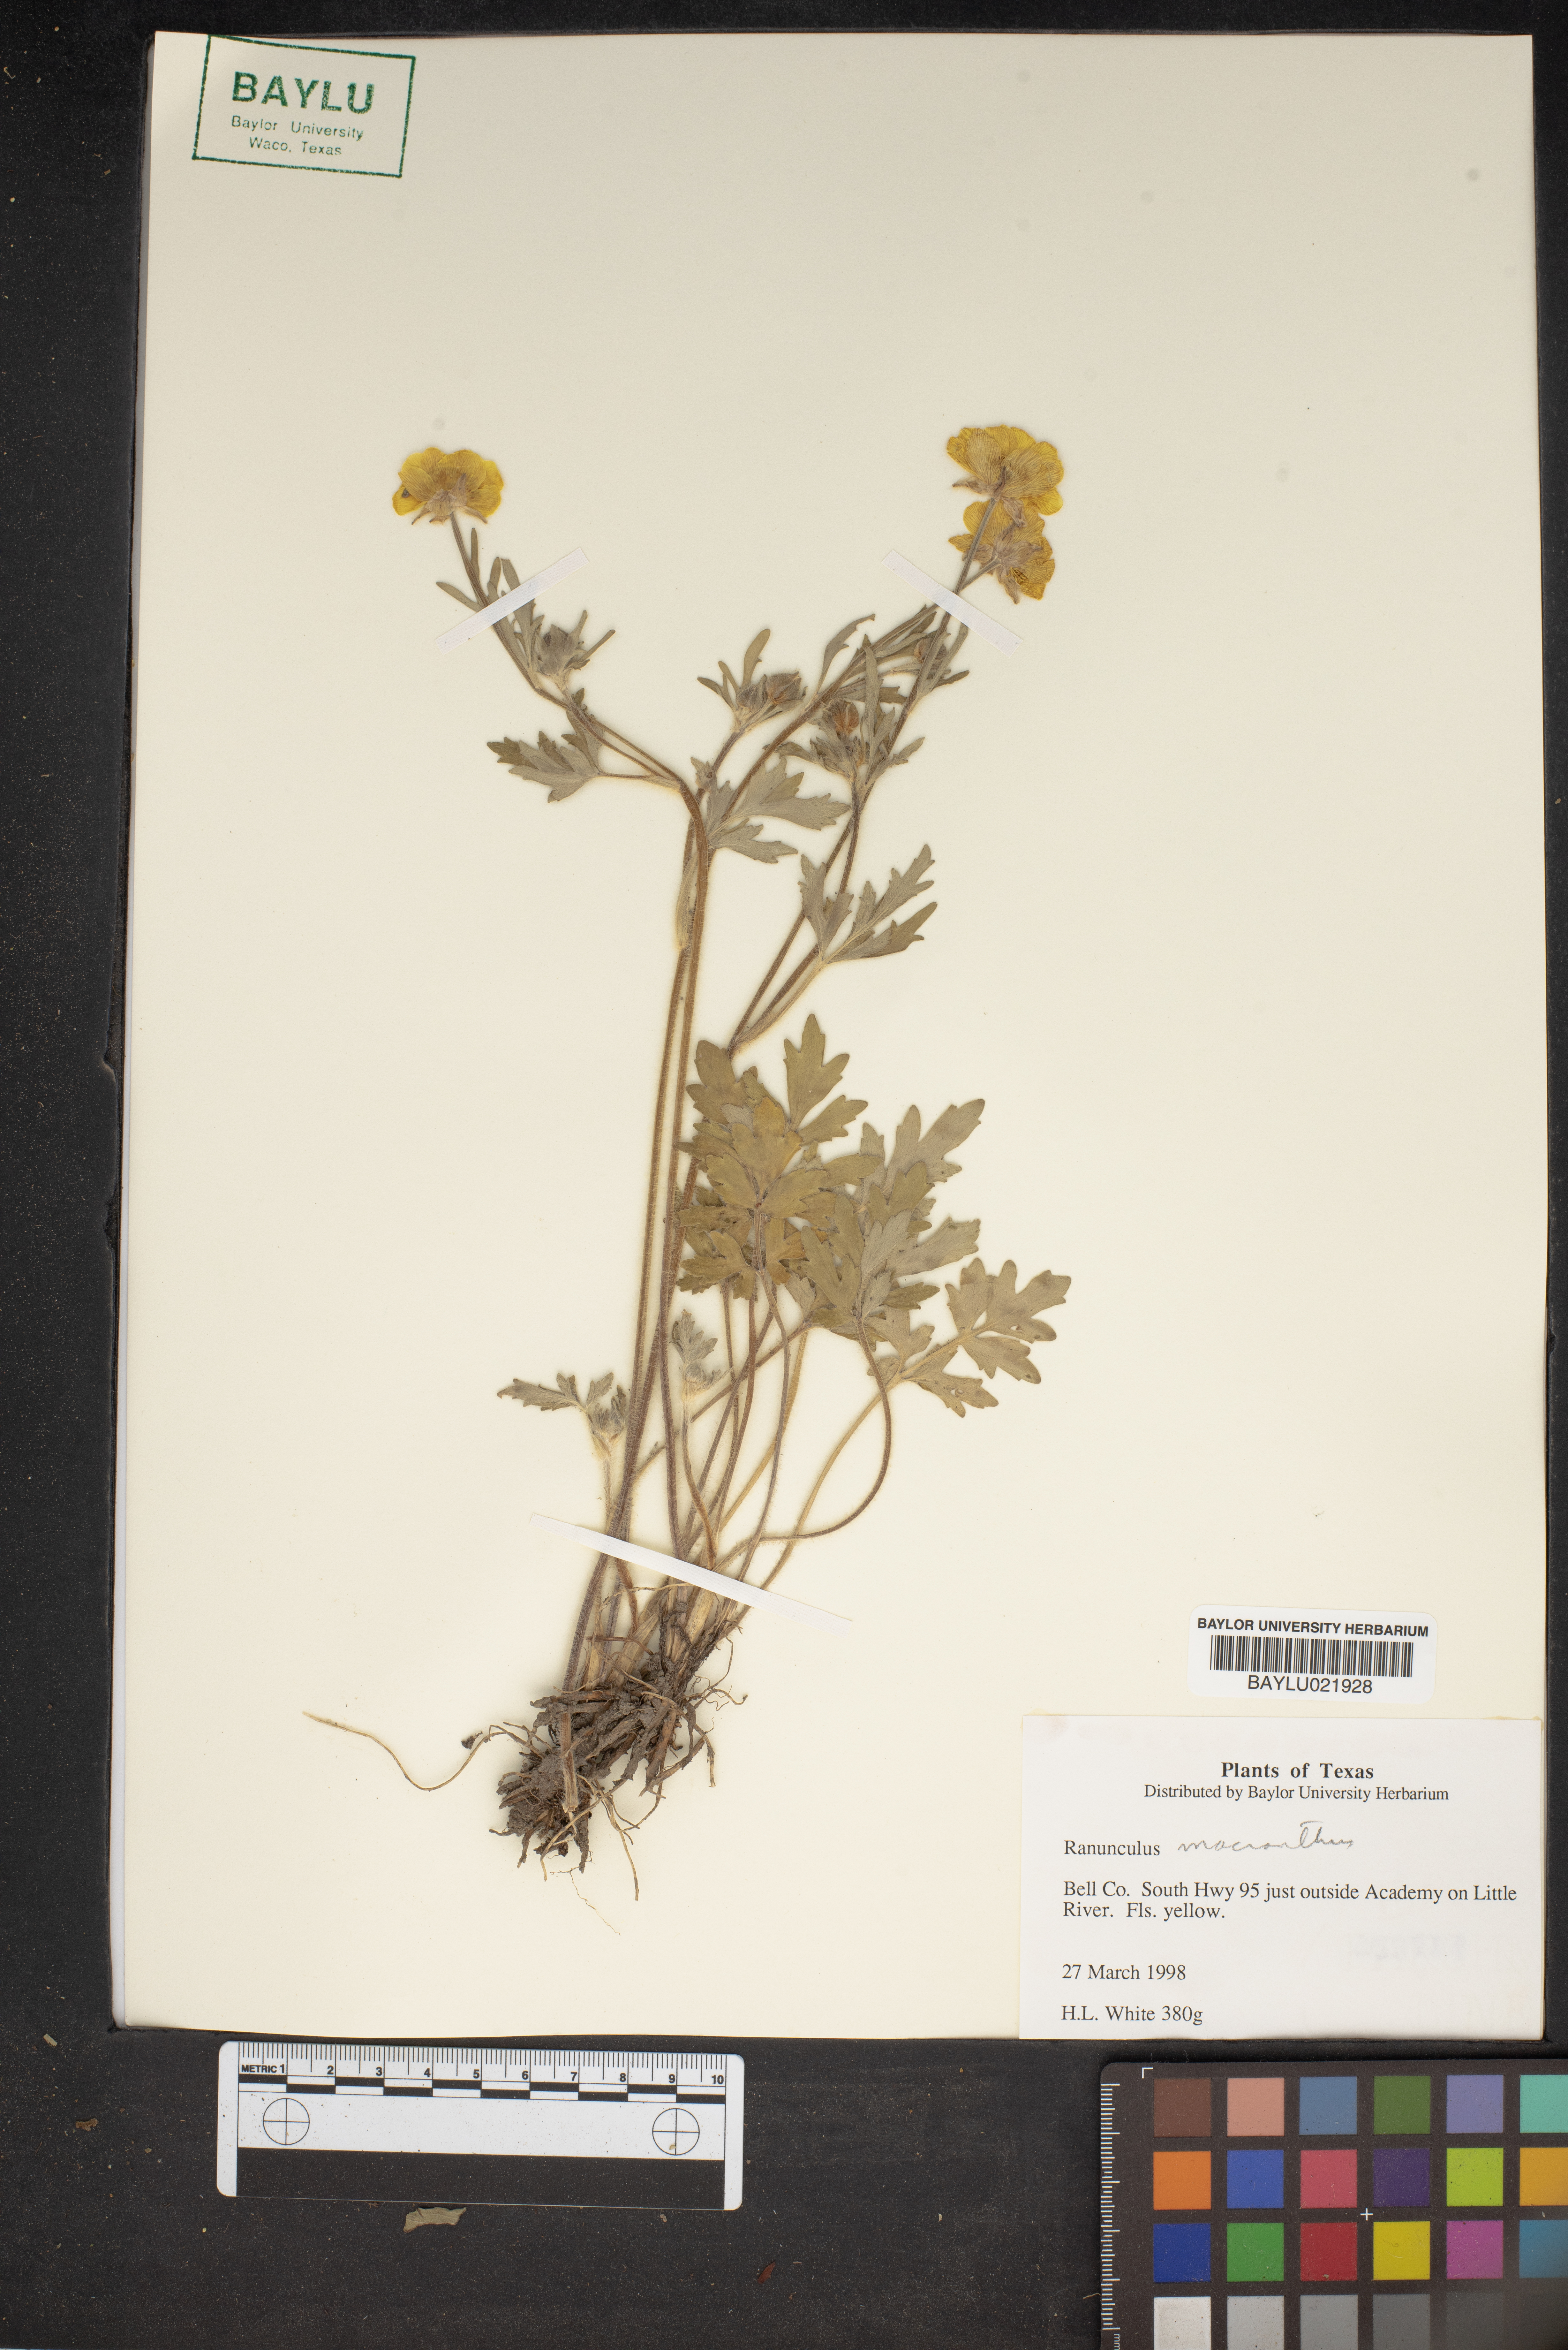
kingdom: Plantae
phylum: Tracheophyta
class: Magnoliopsida
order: Ranunculales
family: Ranunculaceae
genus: Ranunculus
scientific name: Ranunculus macranthus
